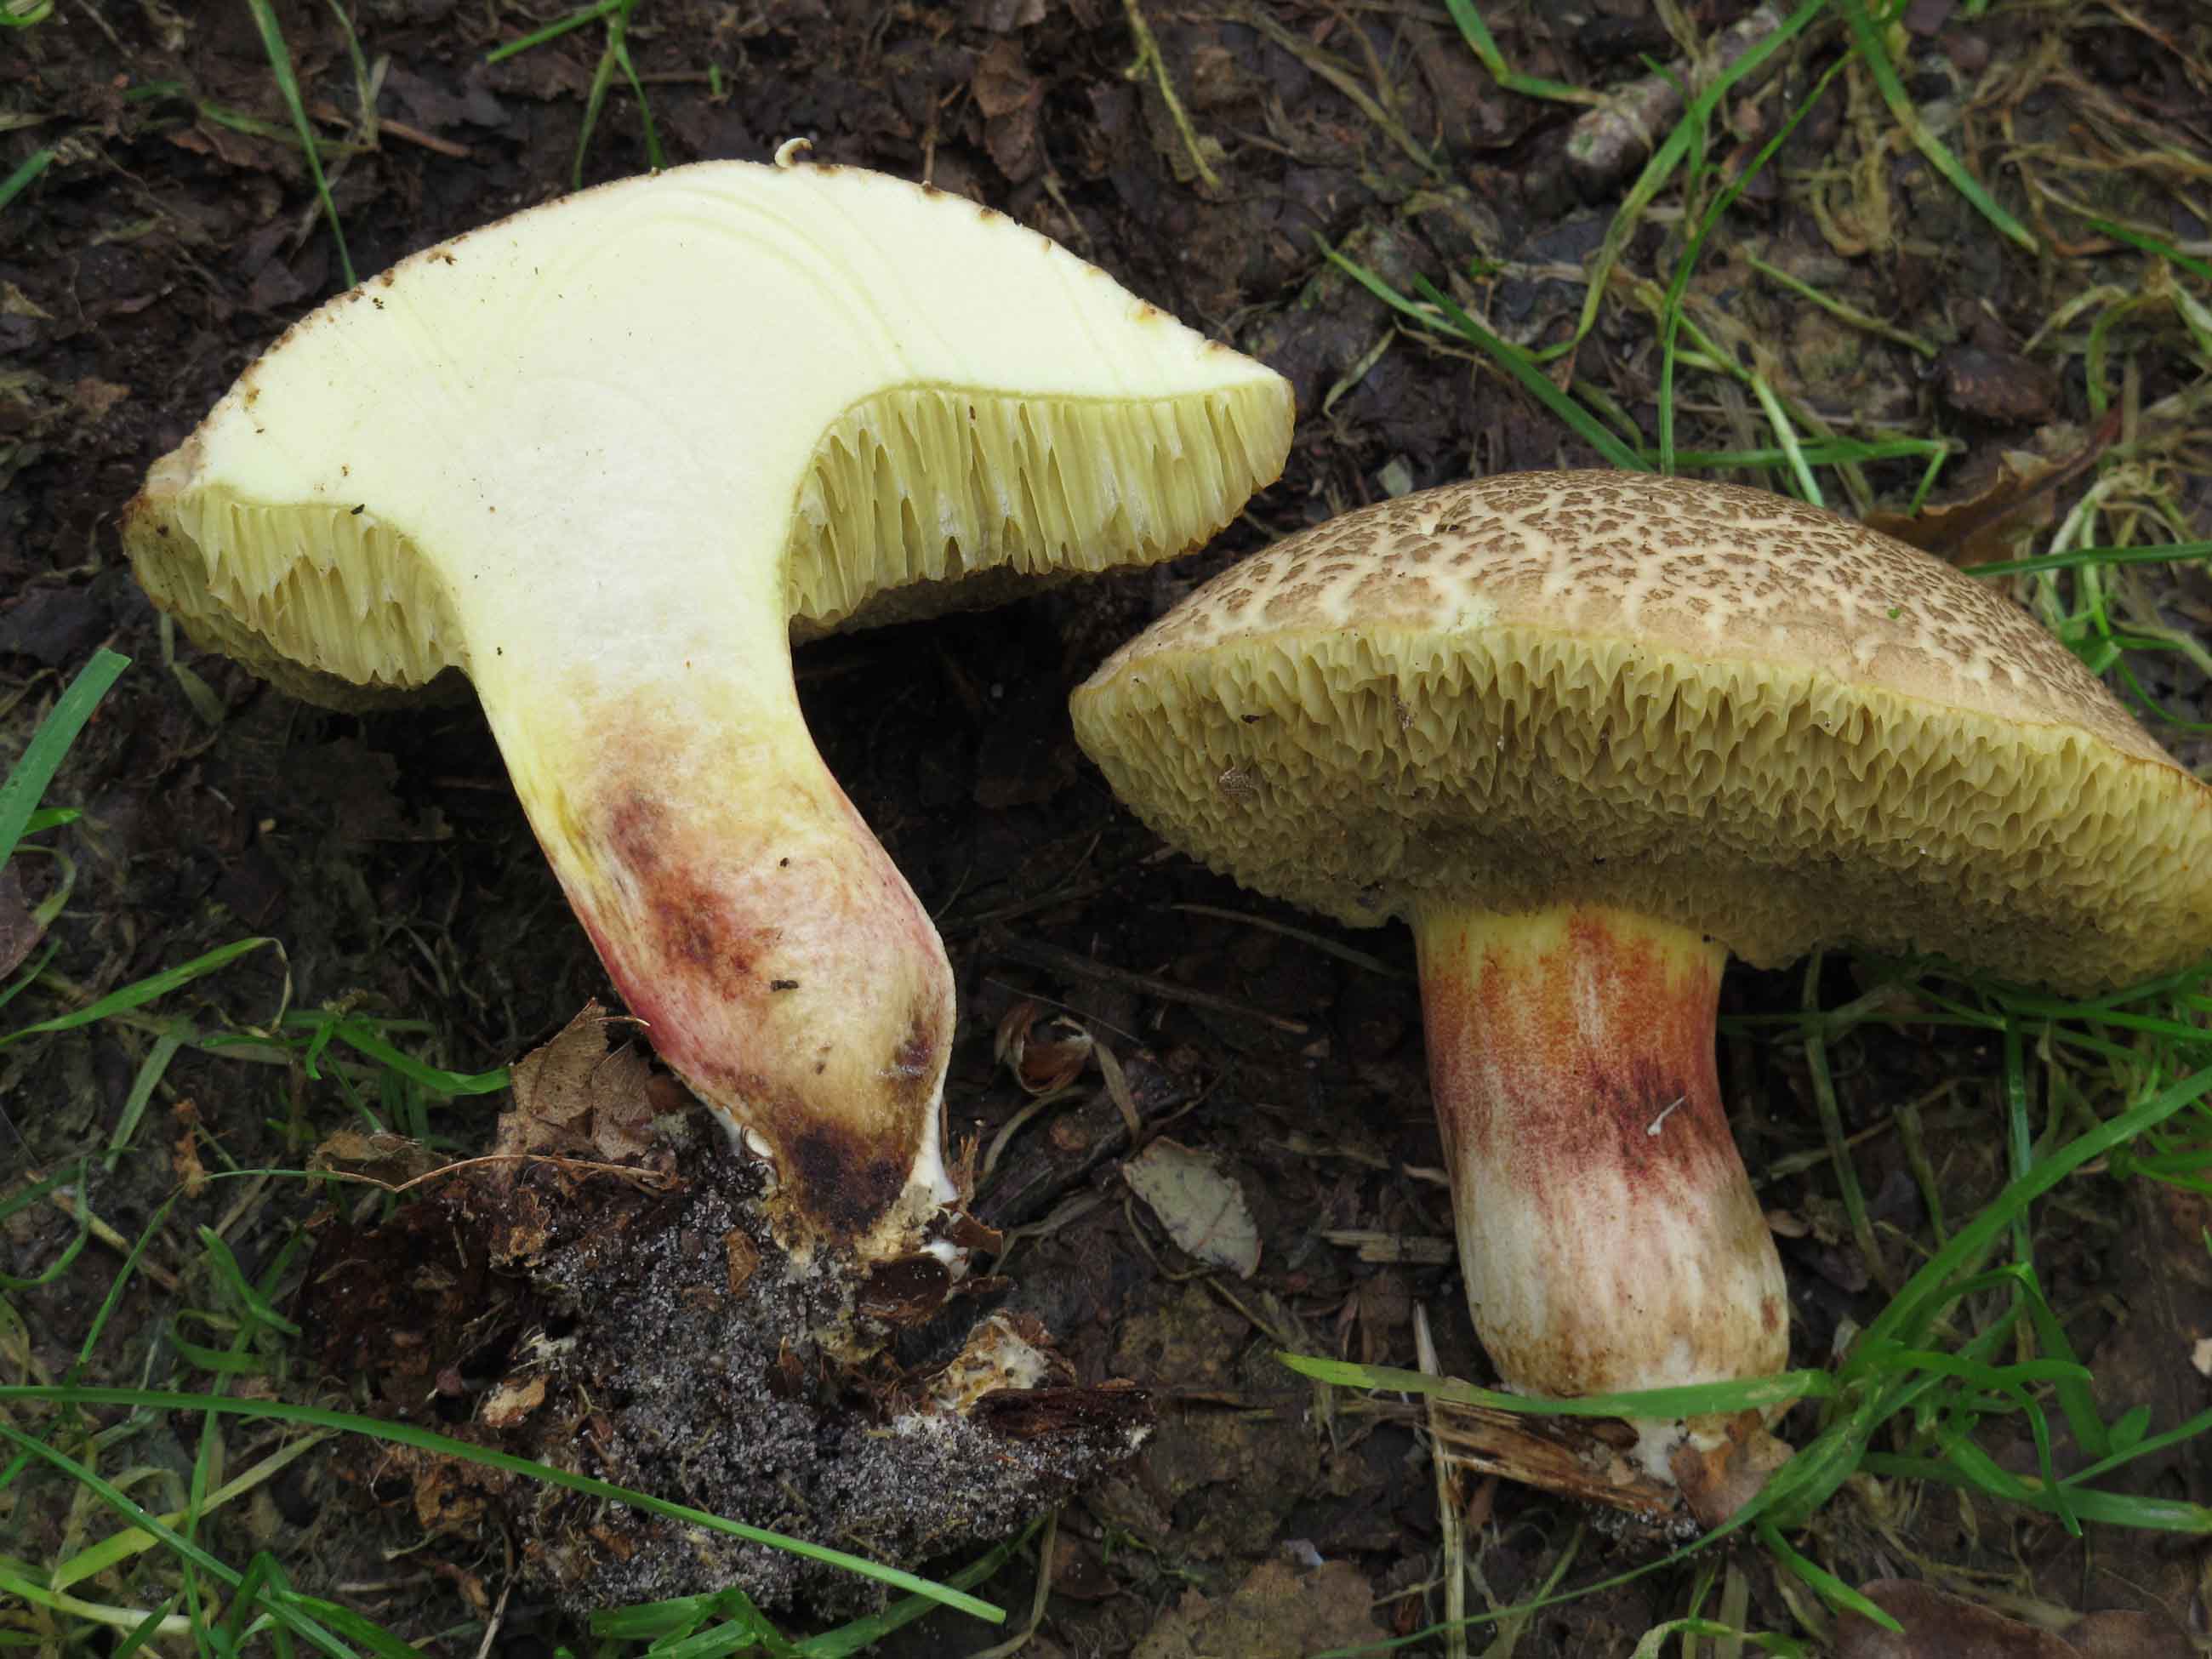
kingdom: Fungi
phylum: Basidiomycota
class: Agaricomycetes
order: Boletales
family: Boletaceae
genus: Xerocomellus
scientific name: Xerocomellus chrysenteron
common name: rødsprukken rørhat
